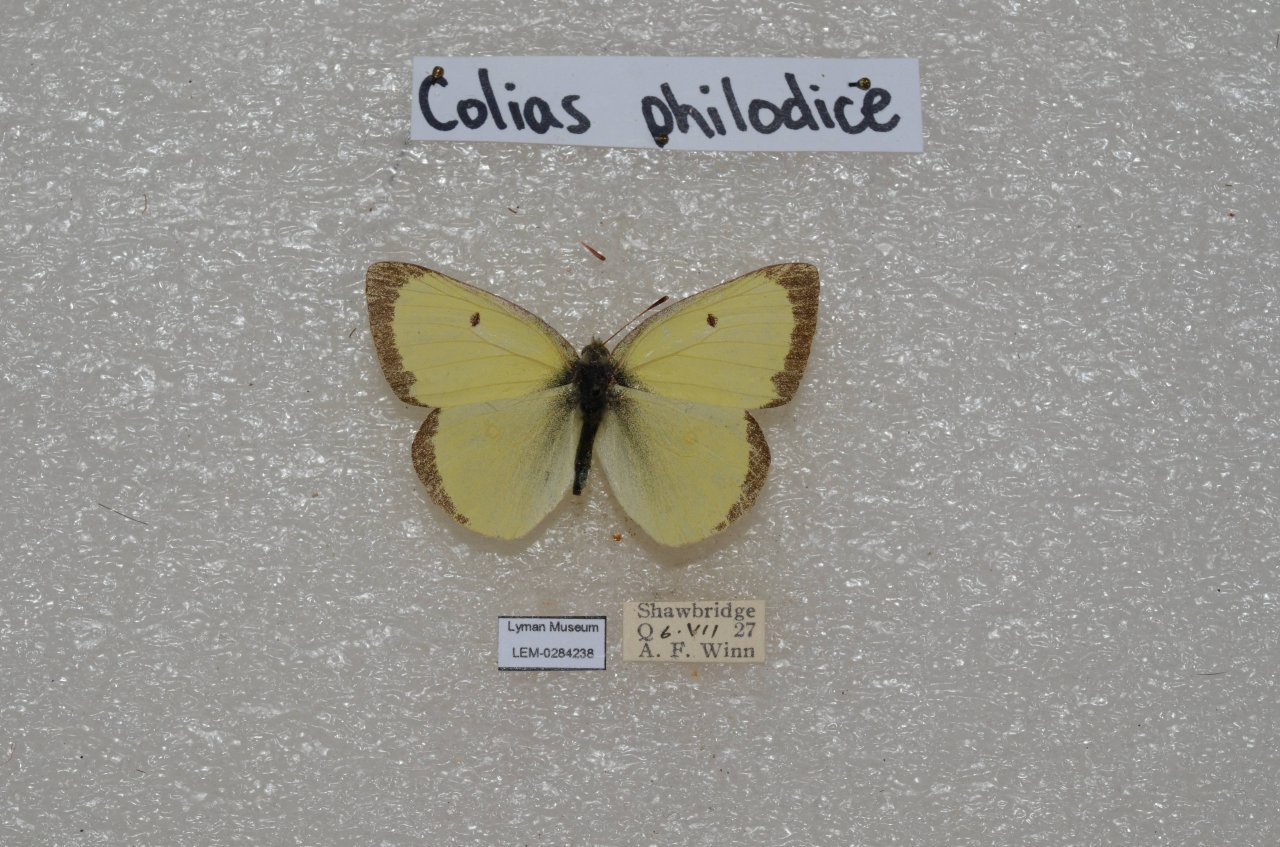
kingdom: Animalia
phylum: Arthropoda
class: Insecta
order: Lepidoptera
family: Pieridae
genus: Colias
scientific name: Colias philodice
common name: Clouded Sulphur
